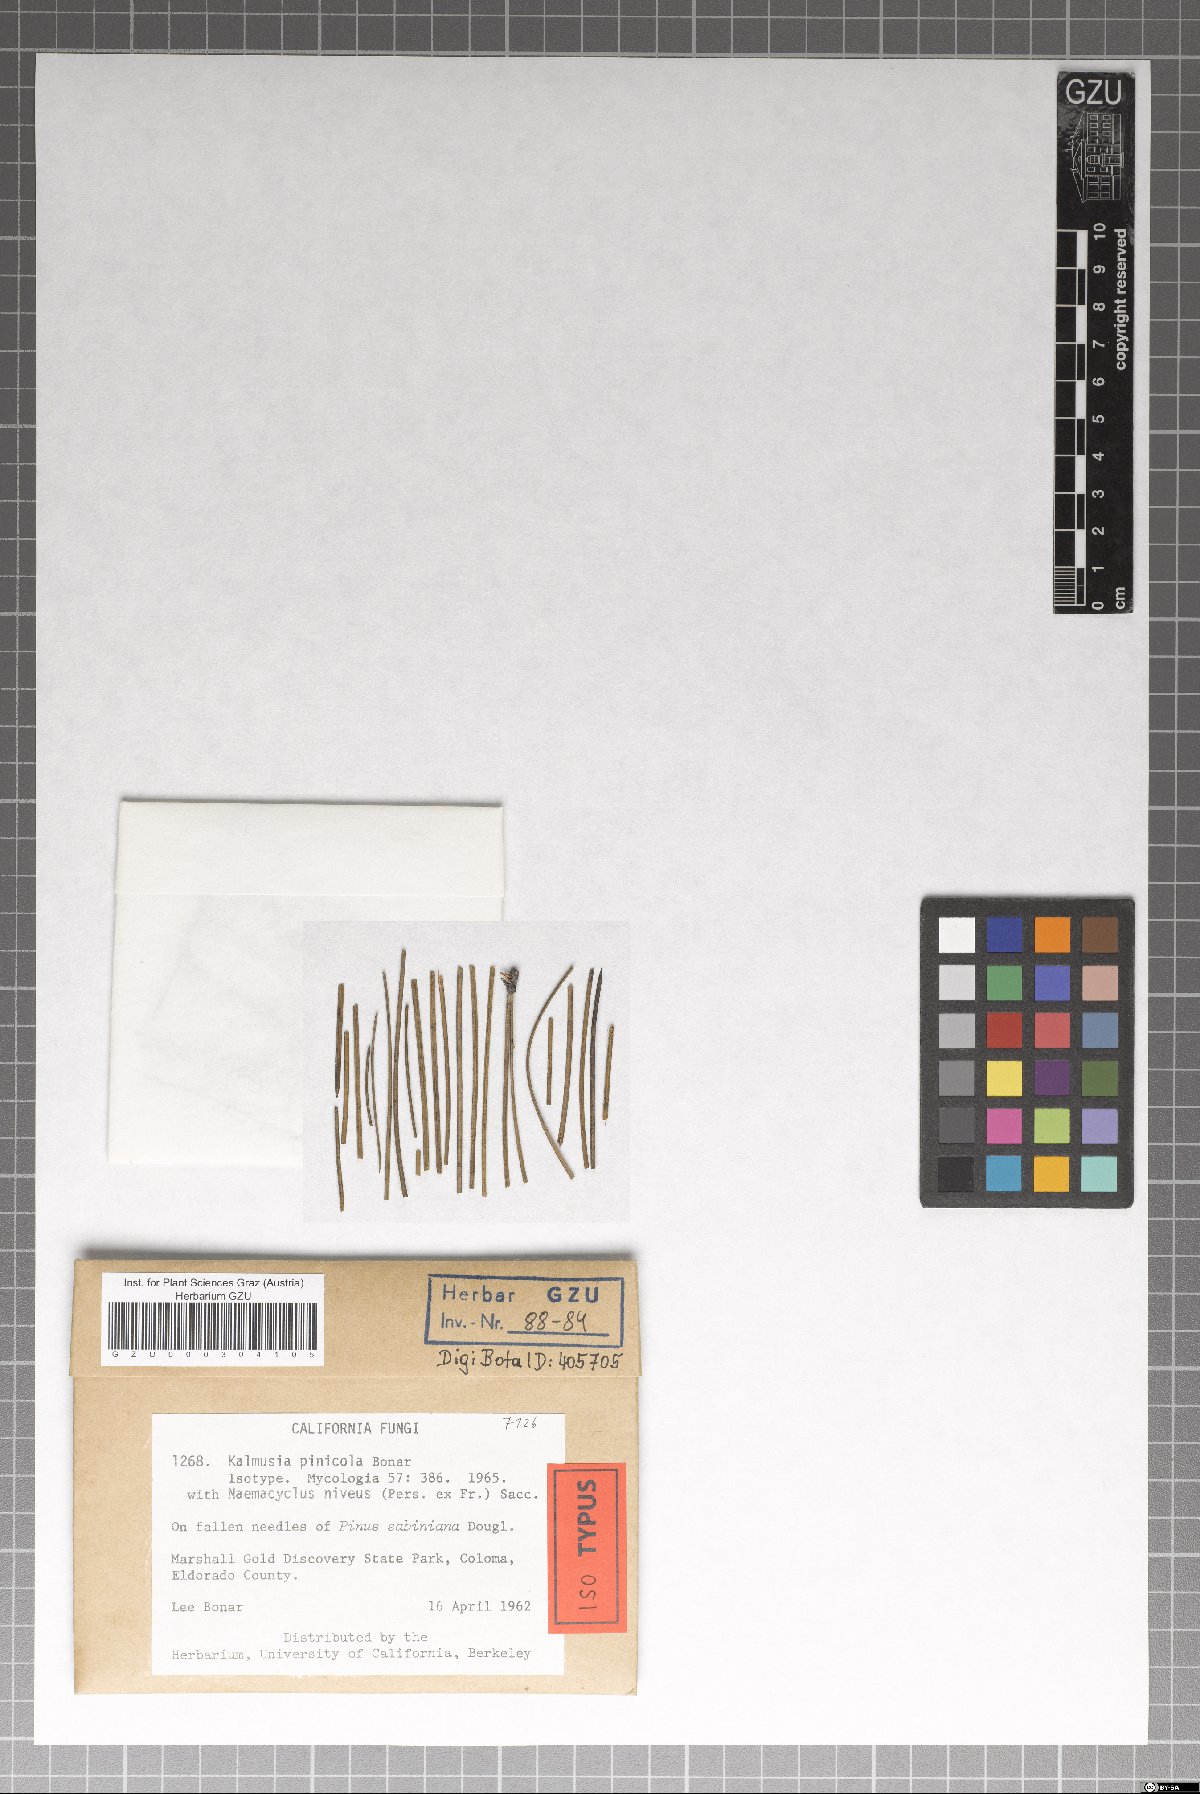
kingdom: Fungi
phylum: Ascomycota
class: Dothideomycetes
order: Pleosporales
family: Didymosphaeriaceae
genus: Kalmusia
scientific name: Kalmusia pinicola
